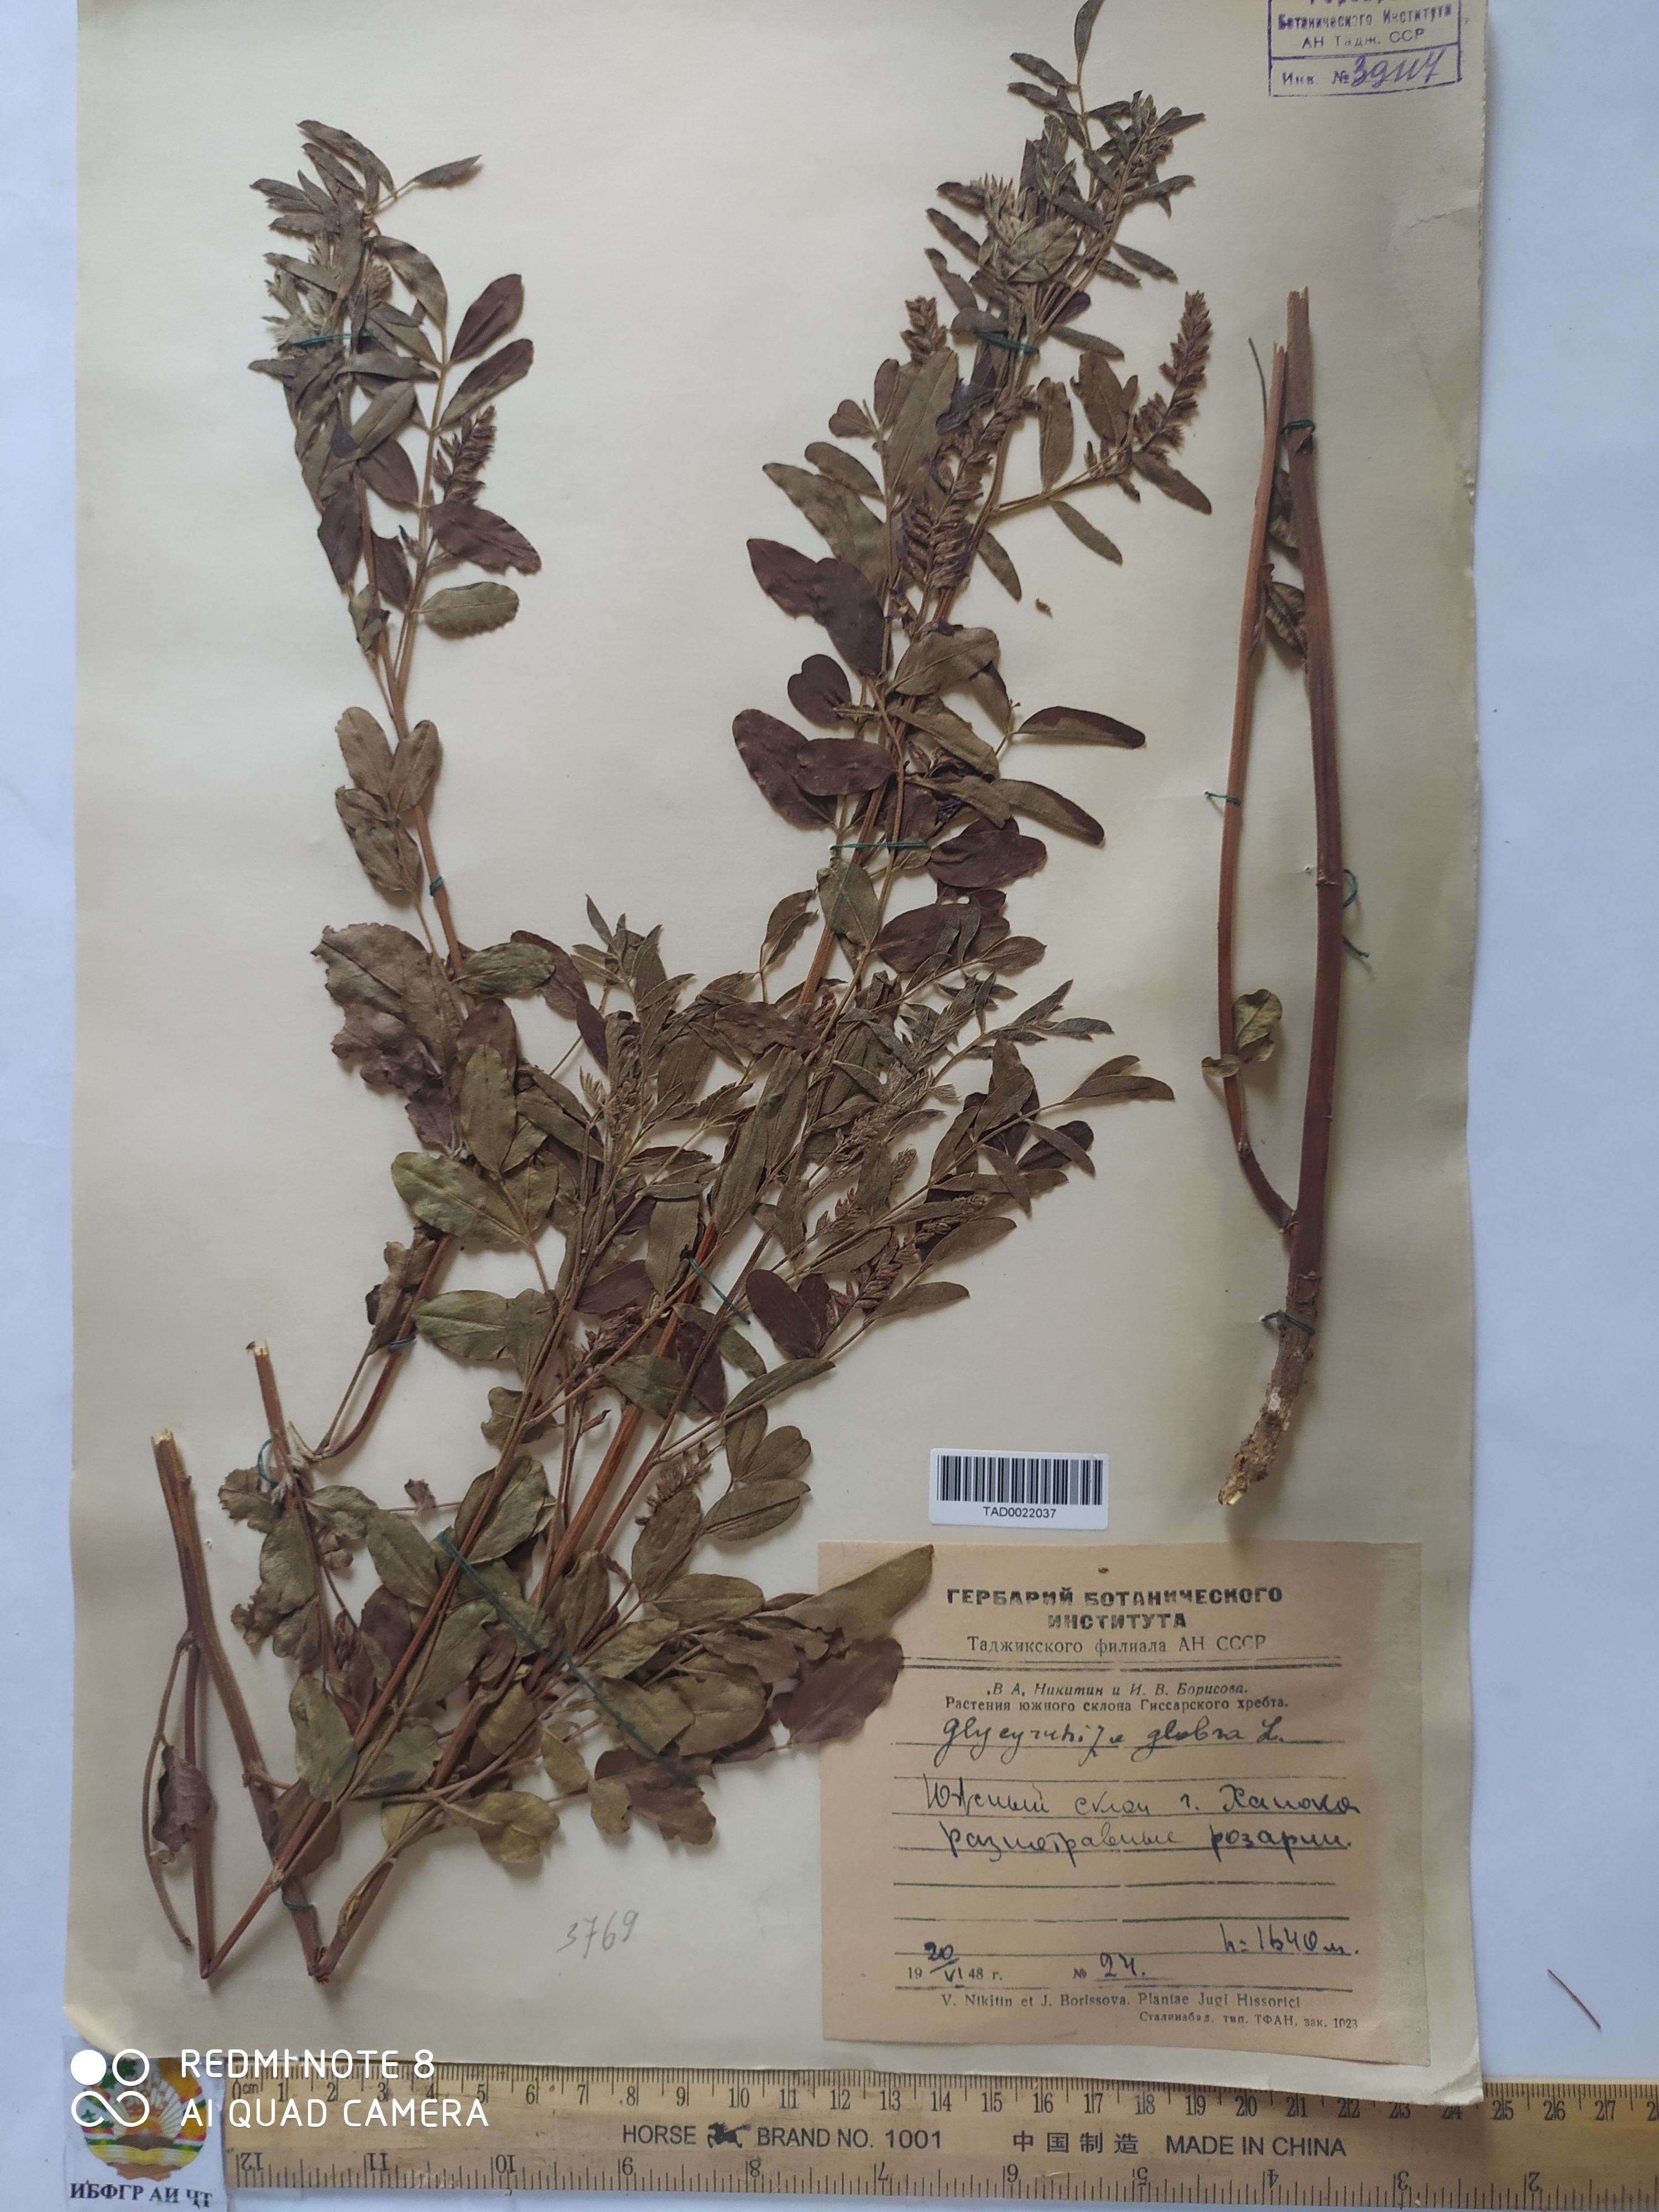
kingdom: Plantae
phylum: Tracheophyta
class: Magnoliopsida
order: Fabales
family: Fabaceae
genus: Glycyrrhiza
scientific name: Glycyrrhiza glabra
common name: Liquorice
